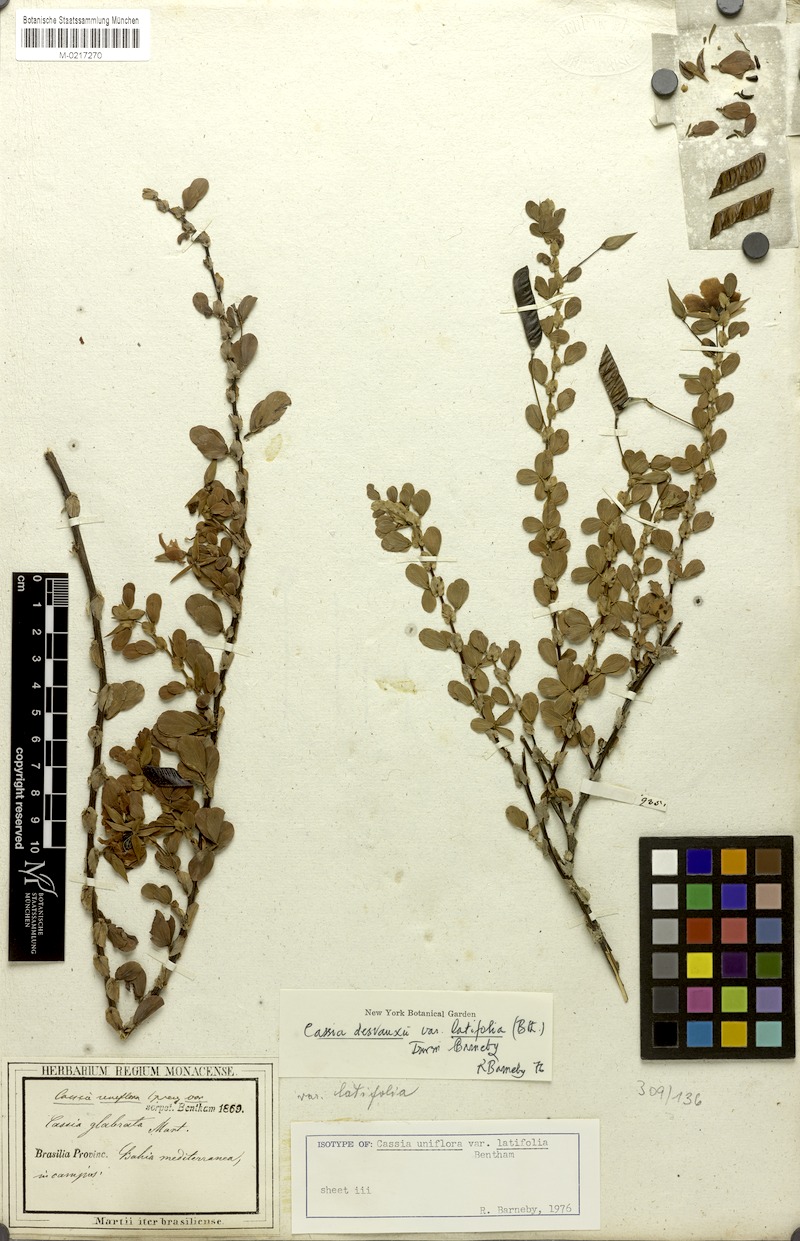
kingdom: Plantae
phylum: Tracheophyta
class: Magnoliopsida
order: Fabales
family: Fabaceae
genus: Chamaecrista
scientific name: Chamaecrista desvauxii
